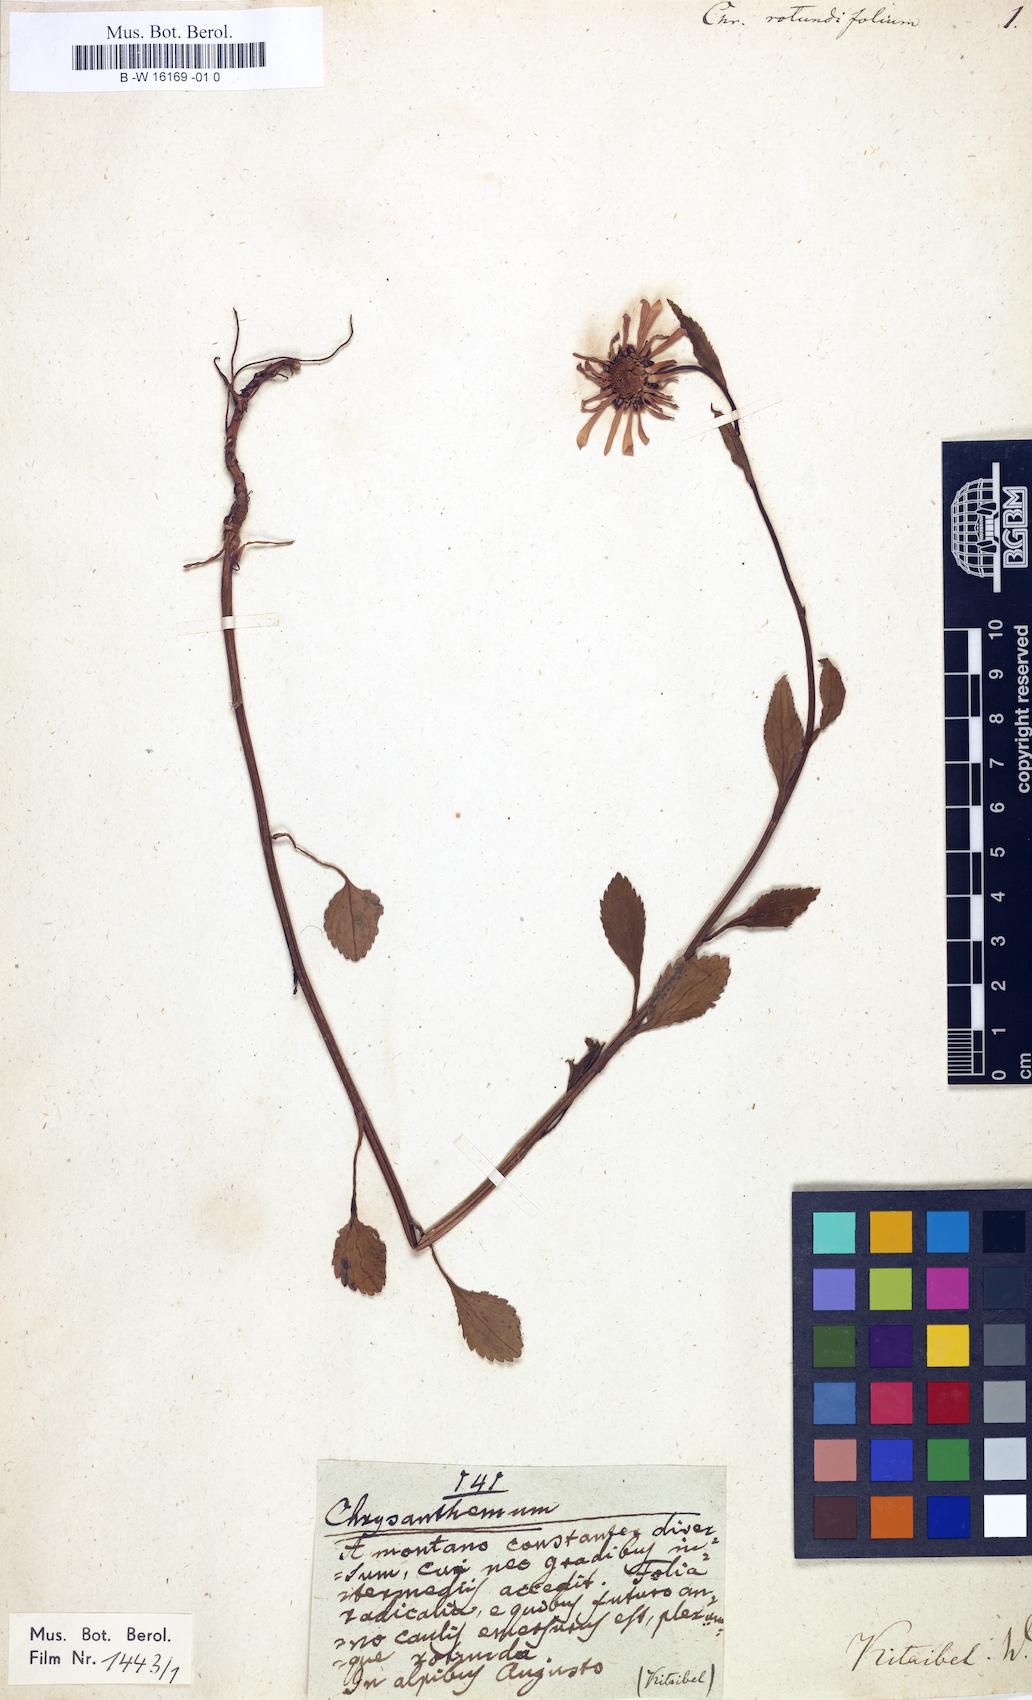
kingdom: Plantae
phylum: Tracheophyta
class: Magnoliopsida
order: Asterales
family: Asteraceae
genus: Leucanthemum
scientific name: Leucanthemum rotundifolium
